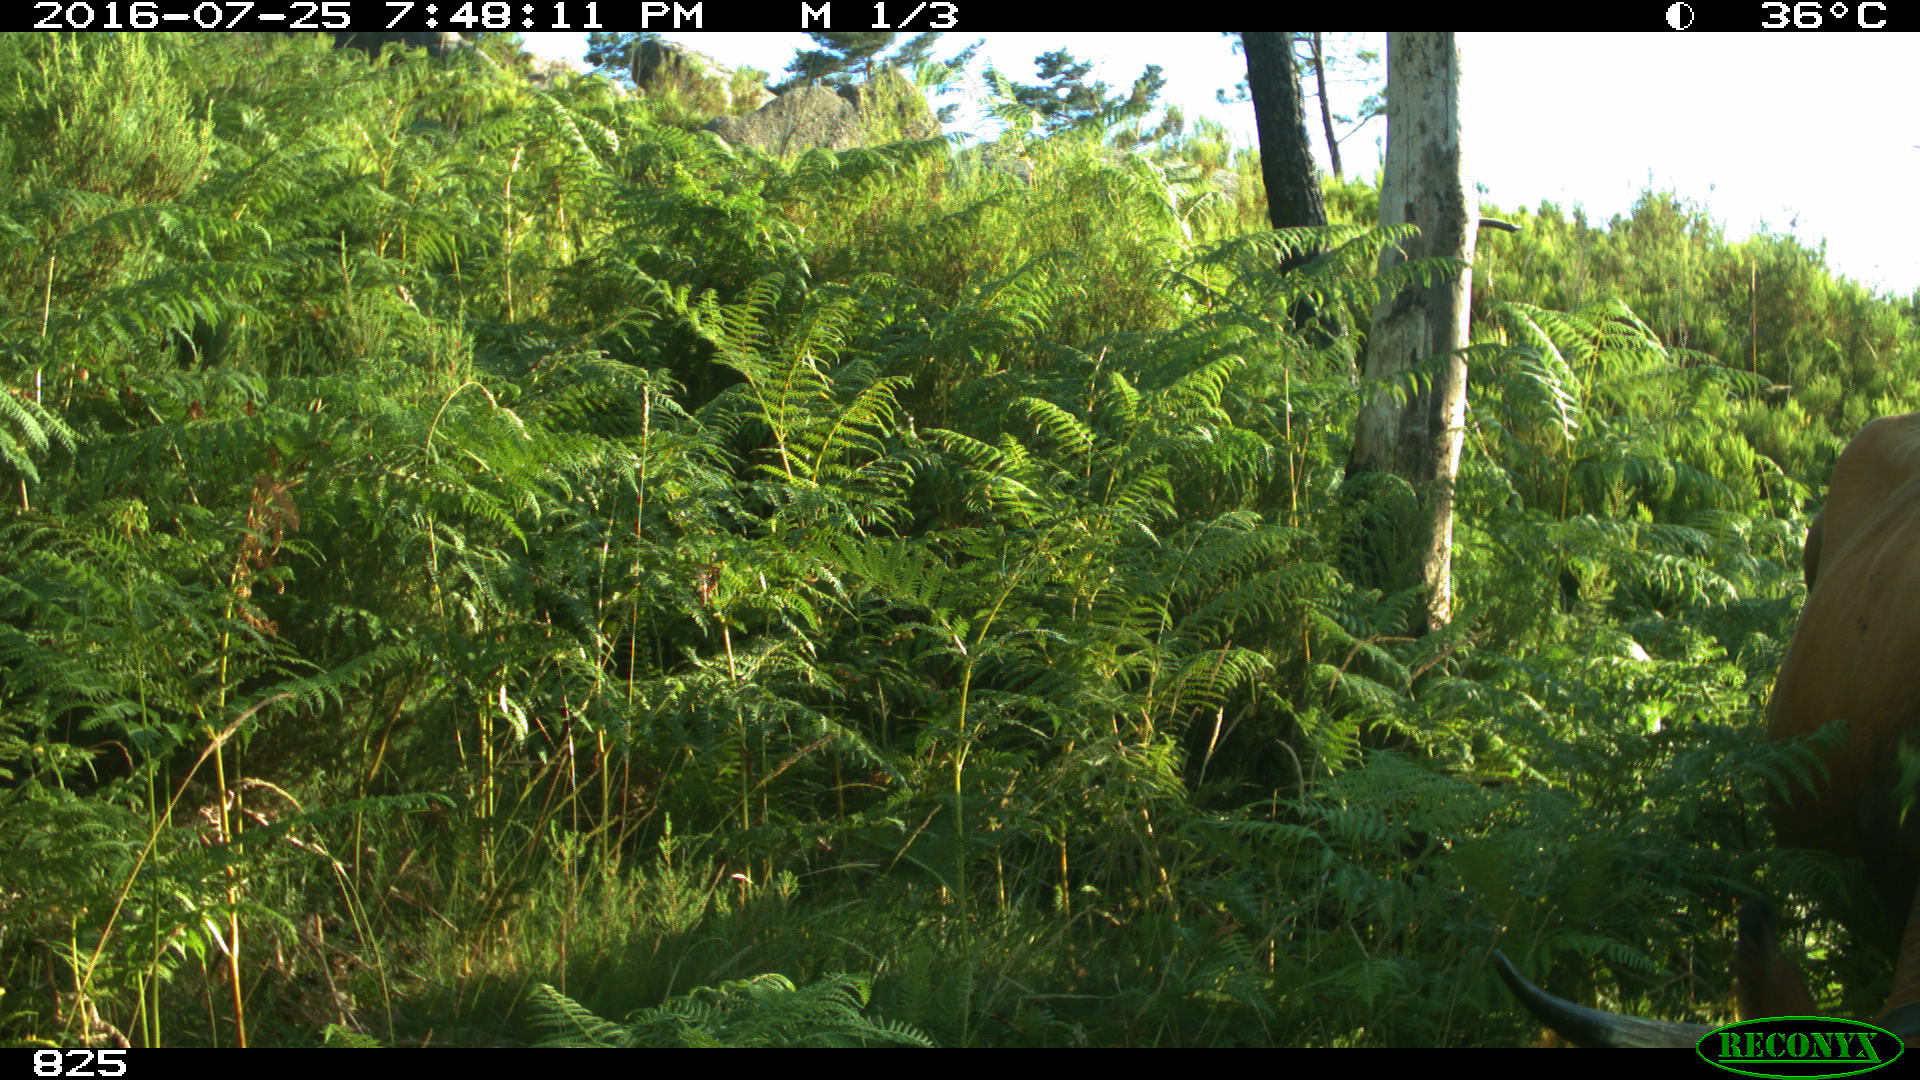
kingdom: Animalia
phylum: Chordata
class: Mammalia
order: Artiodactyla
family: Bovidae
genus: Bos
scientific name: Bos taurus
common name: Domesticated cattle
